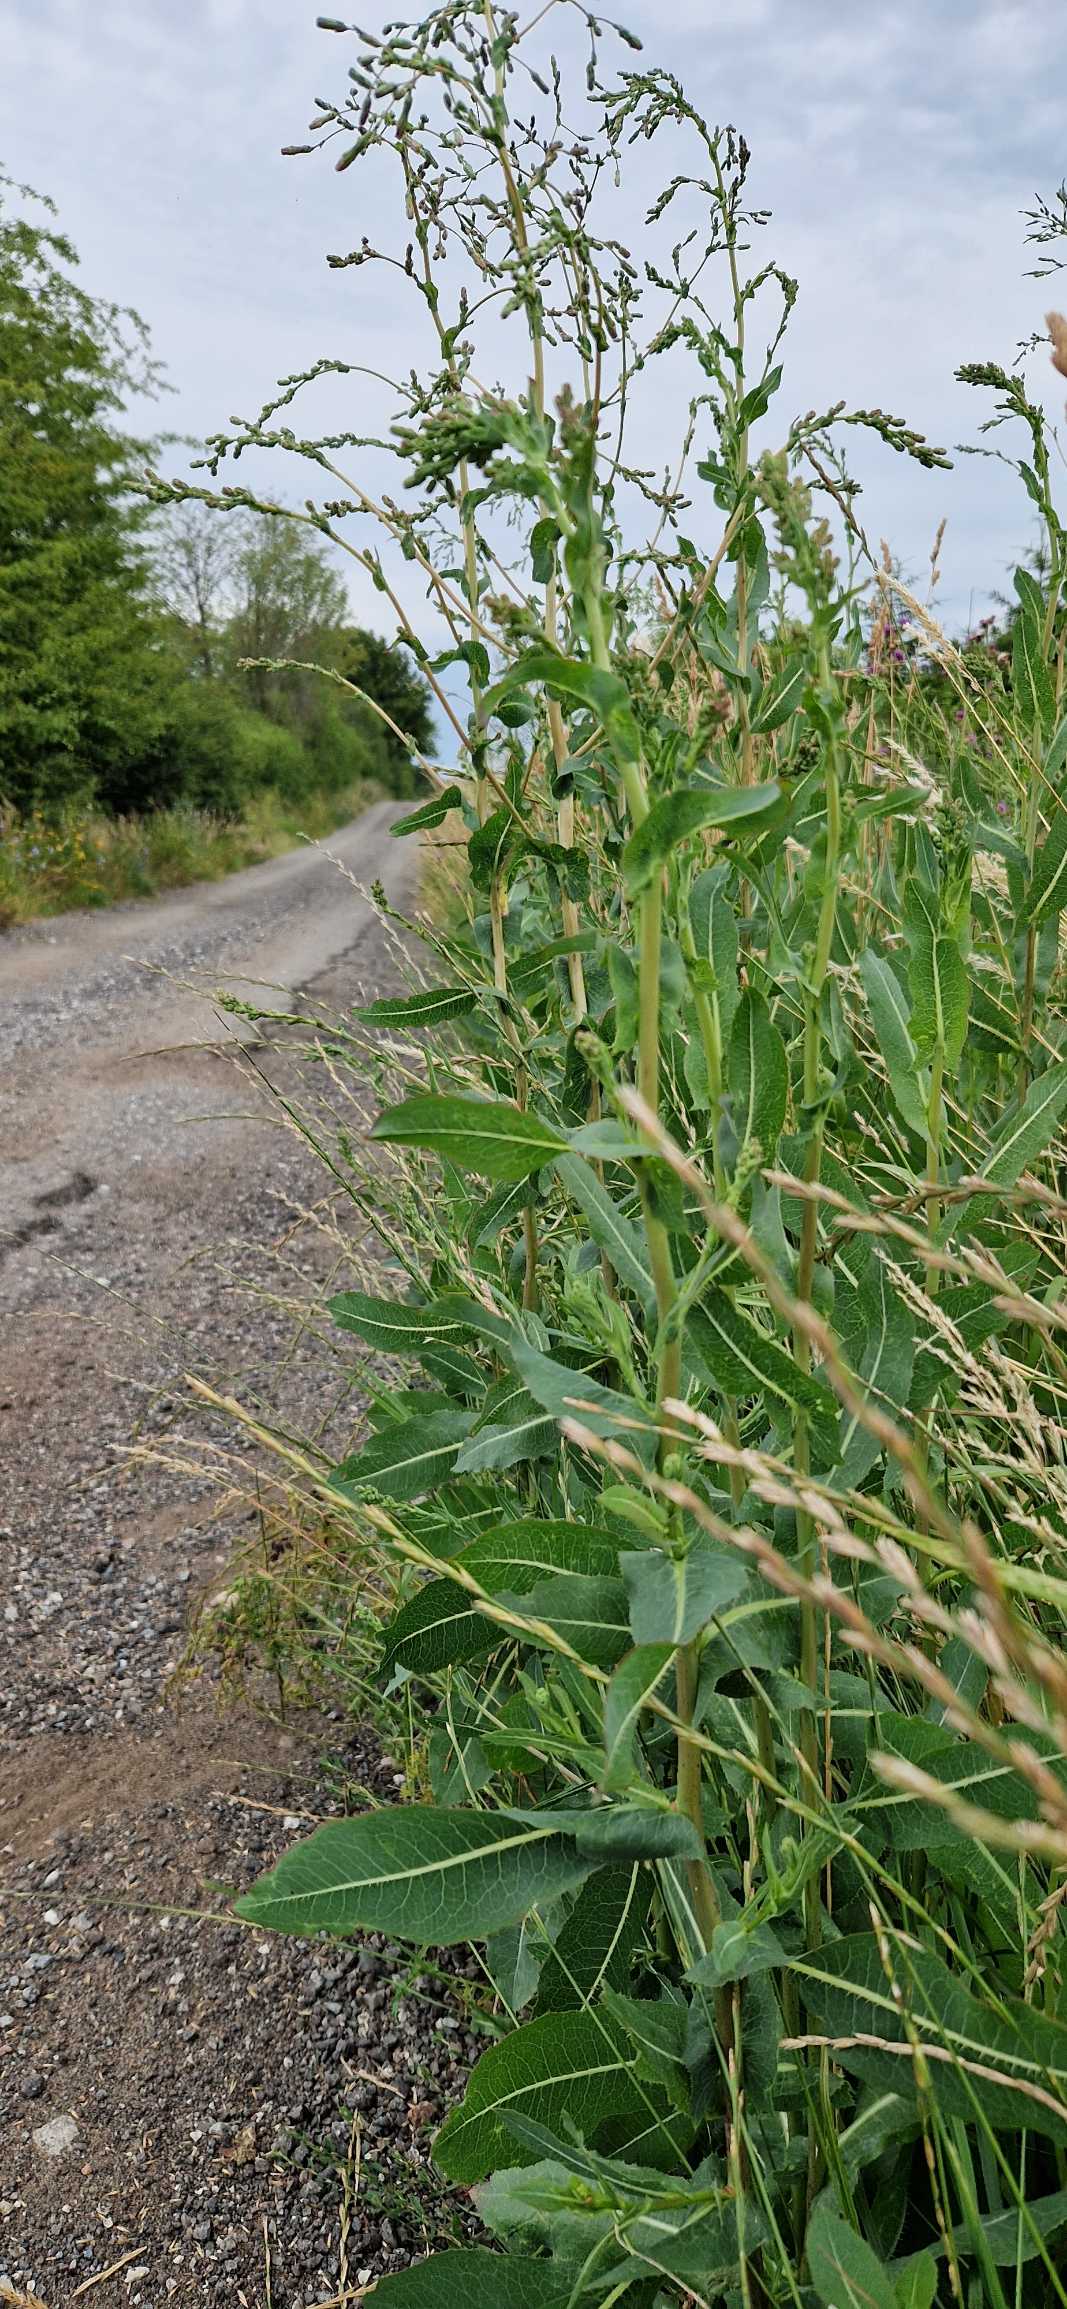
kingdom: Plantae
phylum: Tracheophyta
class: Magnoliopsida
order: Asterales
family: Asteraceae
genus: Lactuca
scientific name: Lactuca serriola
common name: Tornet salat
